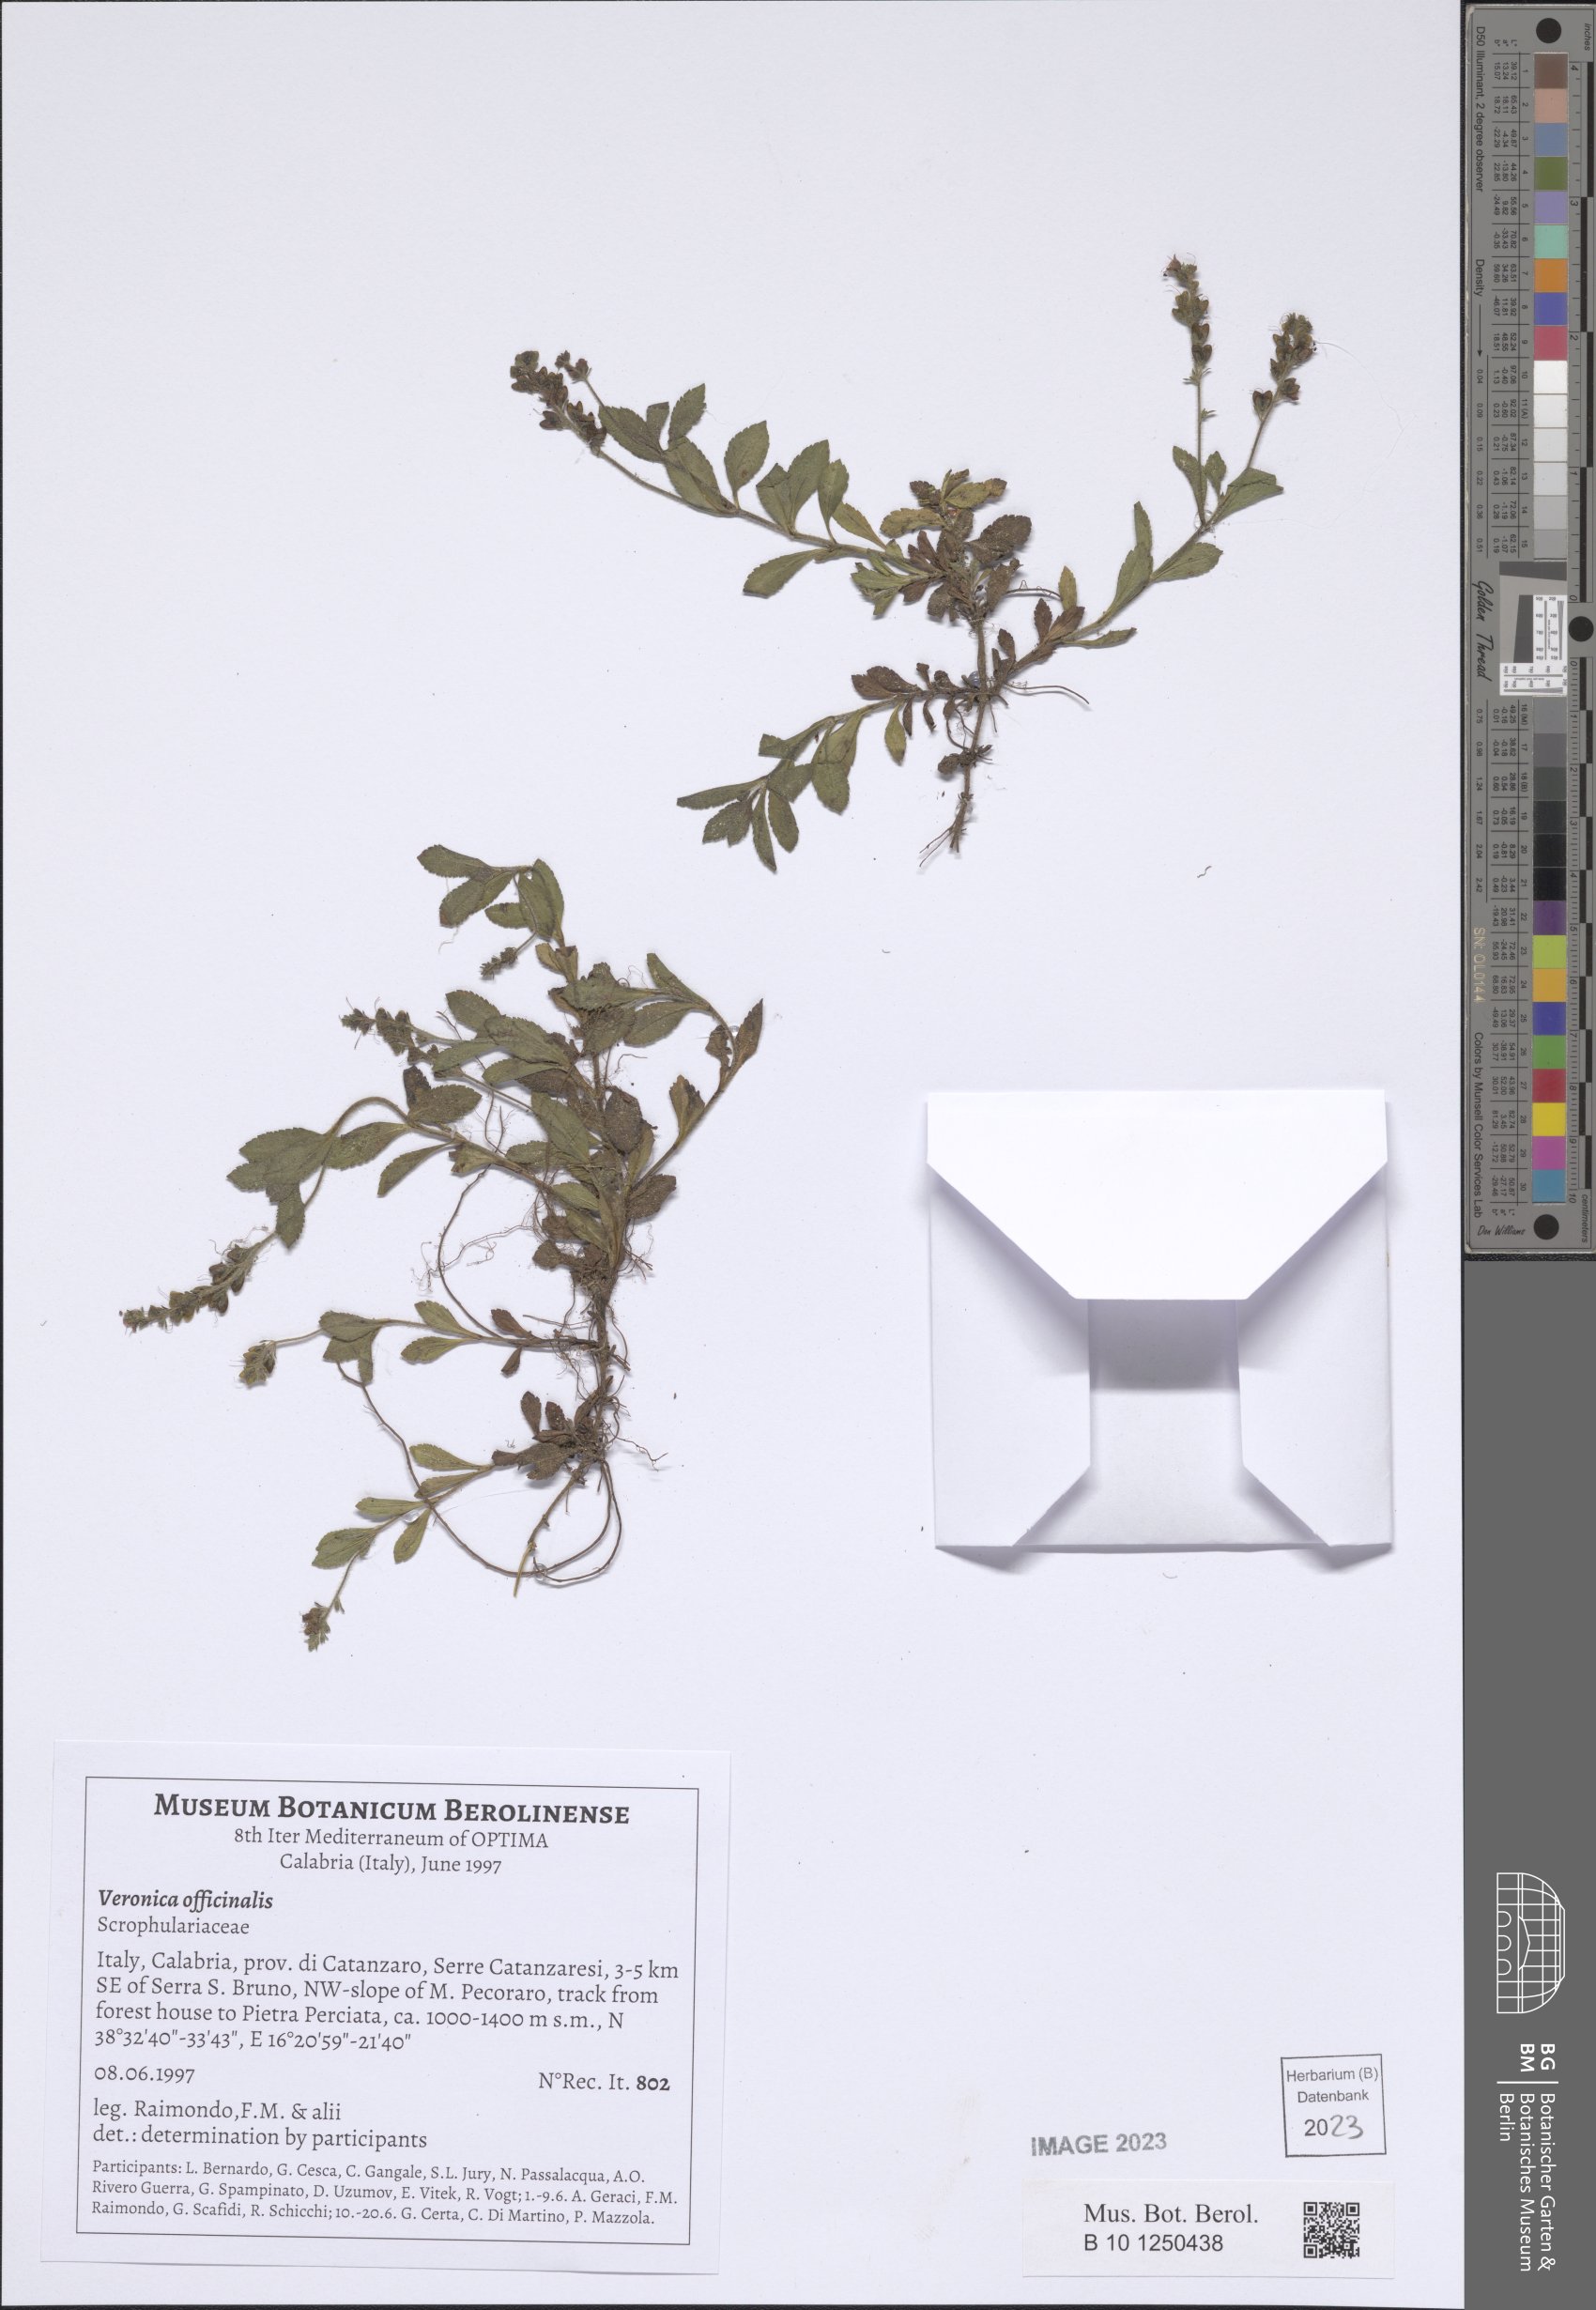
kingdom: Plantae
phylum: Tracheophyta
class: Magnoliopsida
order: Lamiales
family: Plantaginaceae
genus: Veronica
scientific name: Veronica officinalis
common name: Common speedwell
